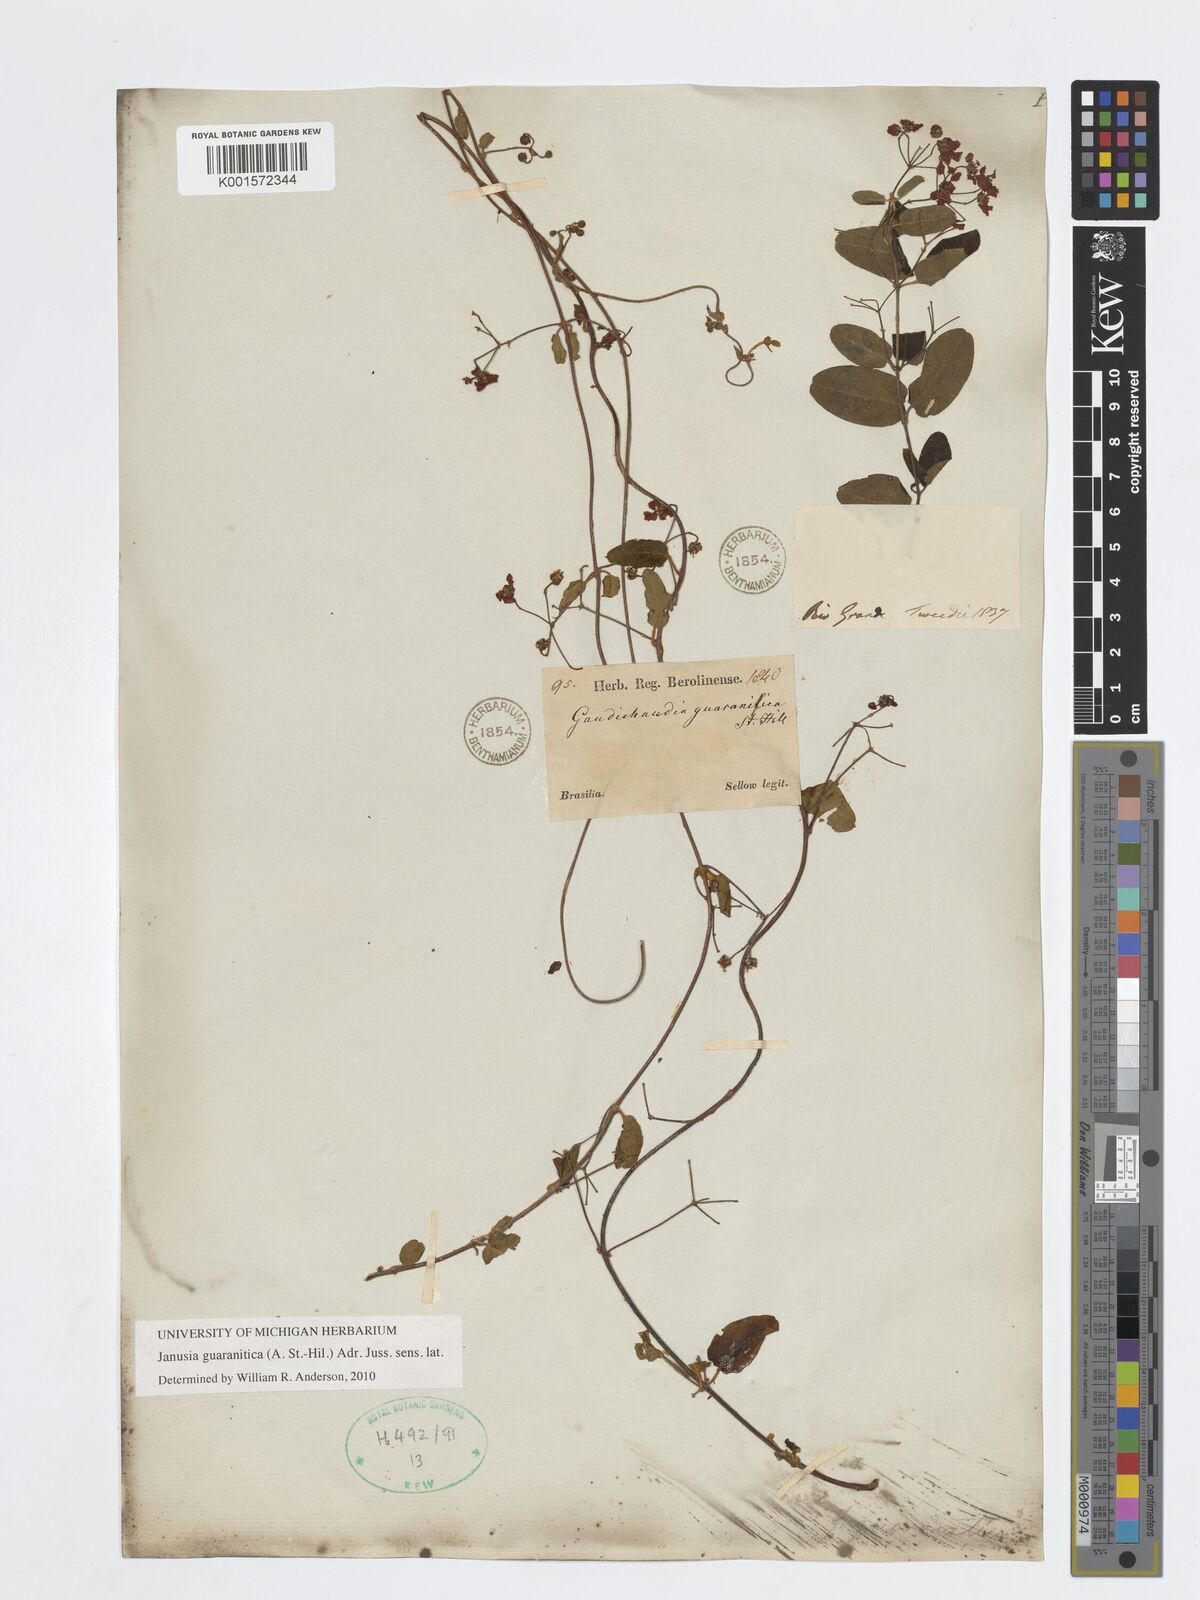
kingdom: Plantae
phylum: Tracheophyta
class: Magnoliopsida
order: Malpighiales
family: Malpighiaceae
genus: Janusia
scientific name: Janusia guaranitica
